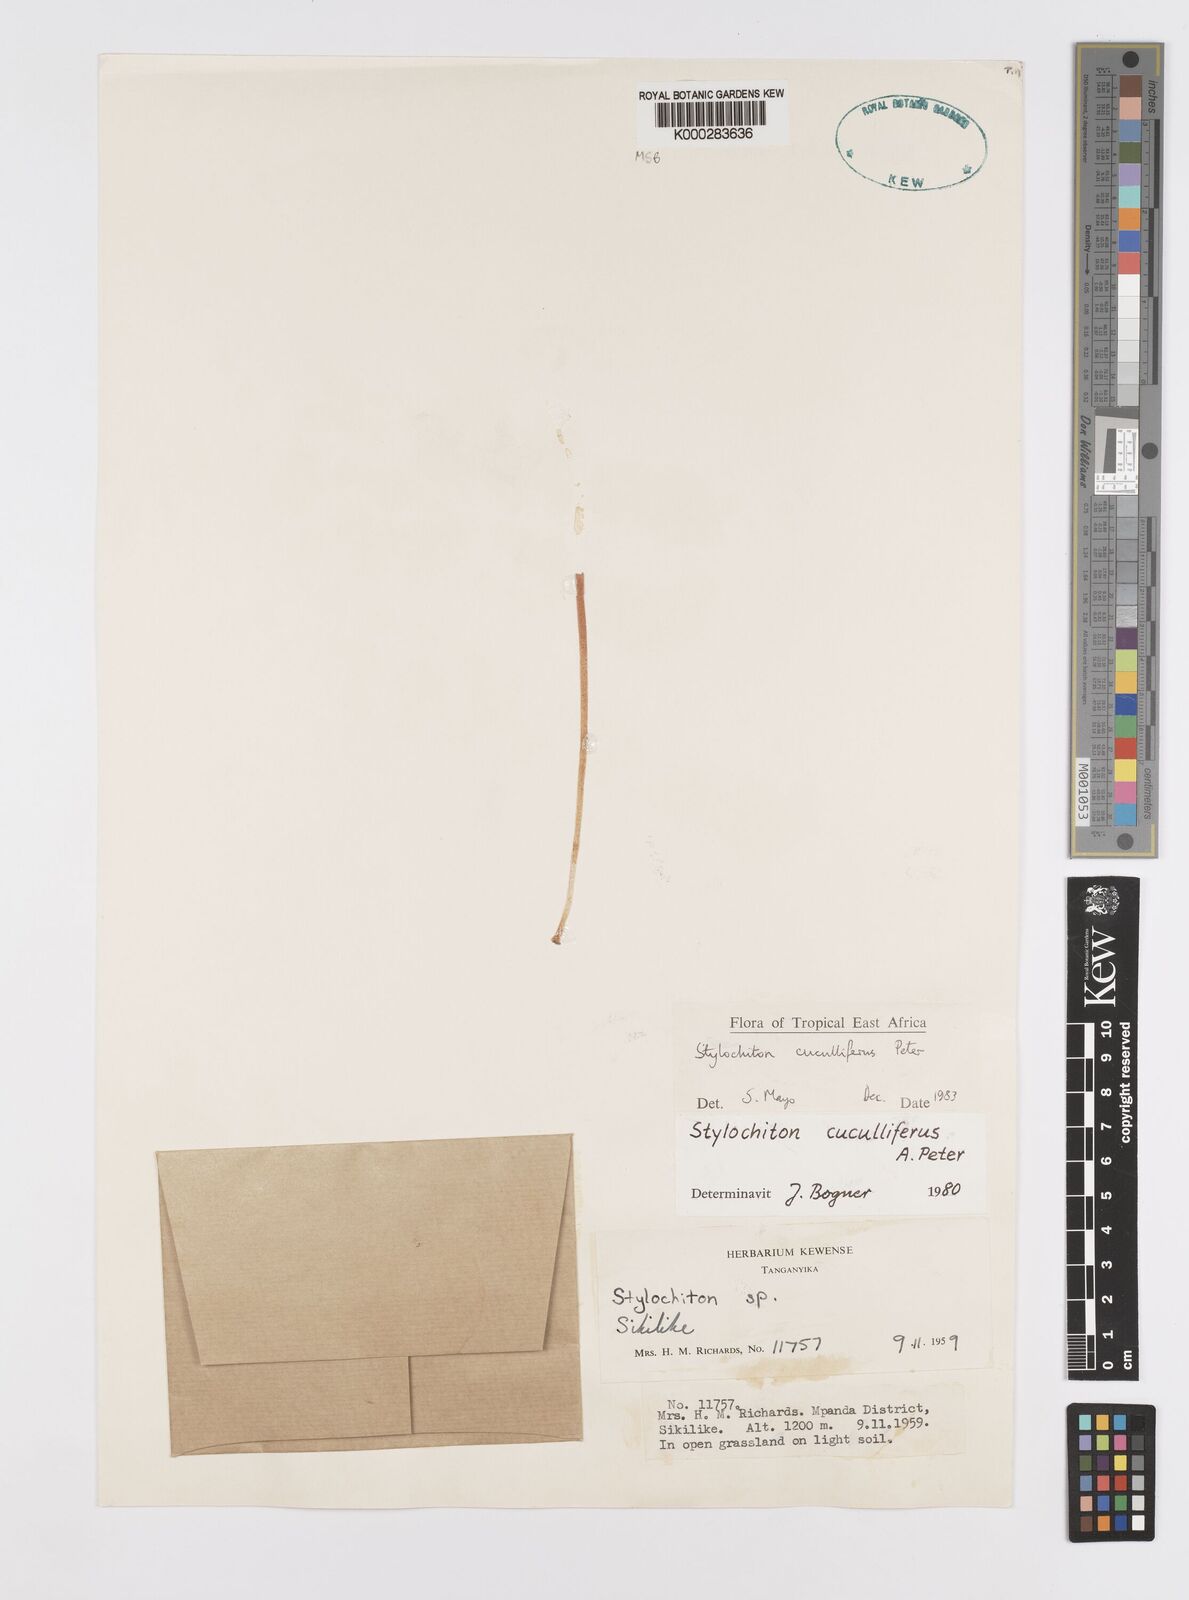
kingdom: Plantae
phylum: Tracheophyta
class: Liliopsida
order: Alismatales
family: Araceae
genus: Stylochaeton
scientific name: Stylochaeton cuculliferum
